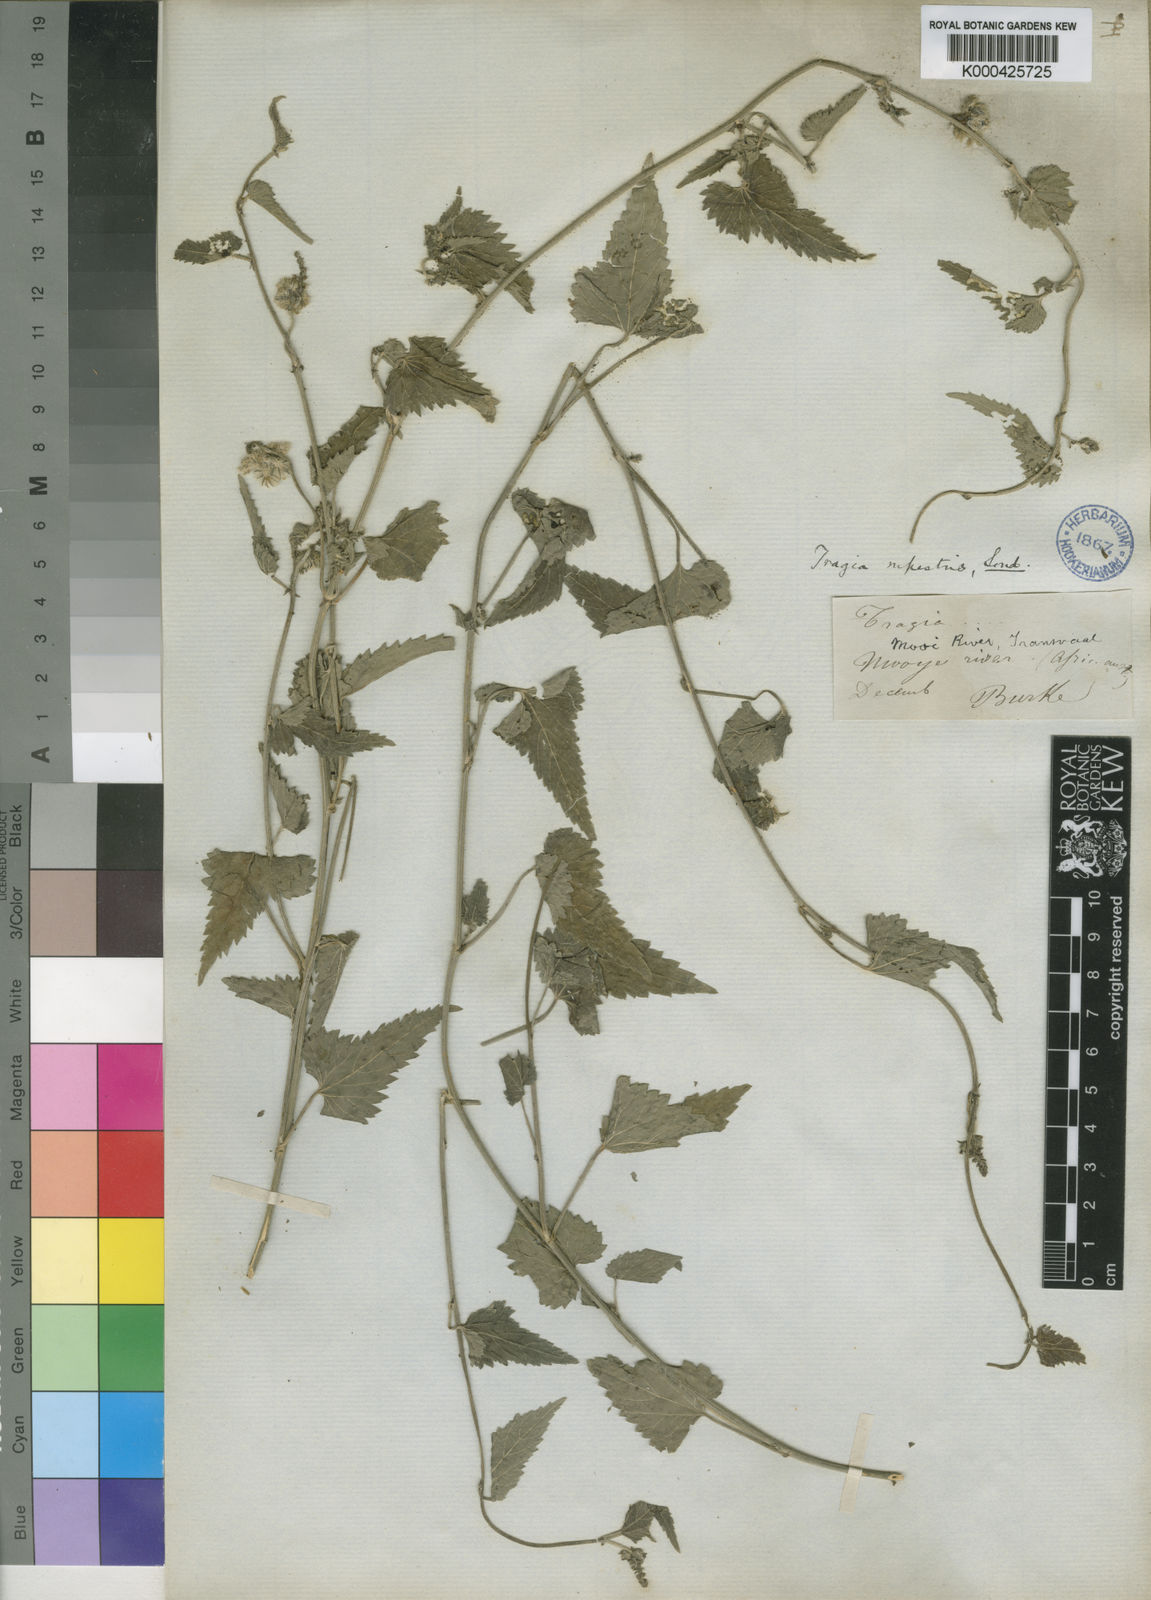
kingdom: Plantae
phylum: Tracheophyta
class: Magnoliopsida
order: Malpighiales
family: Euphorbiaceae
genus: Tragia
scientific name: Tragia rupestris
